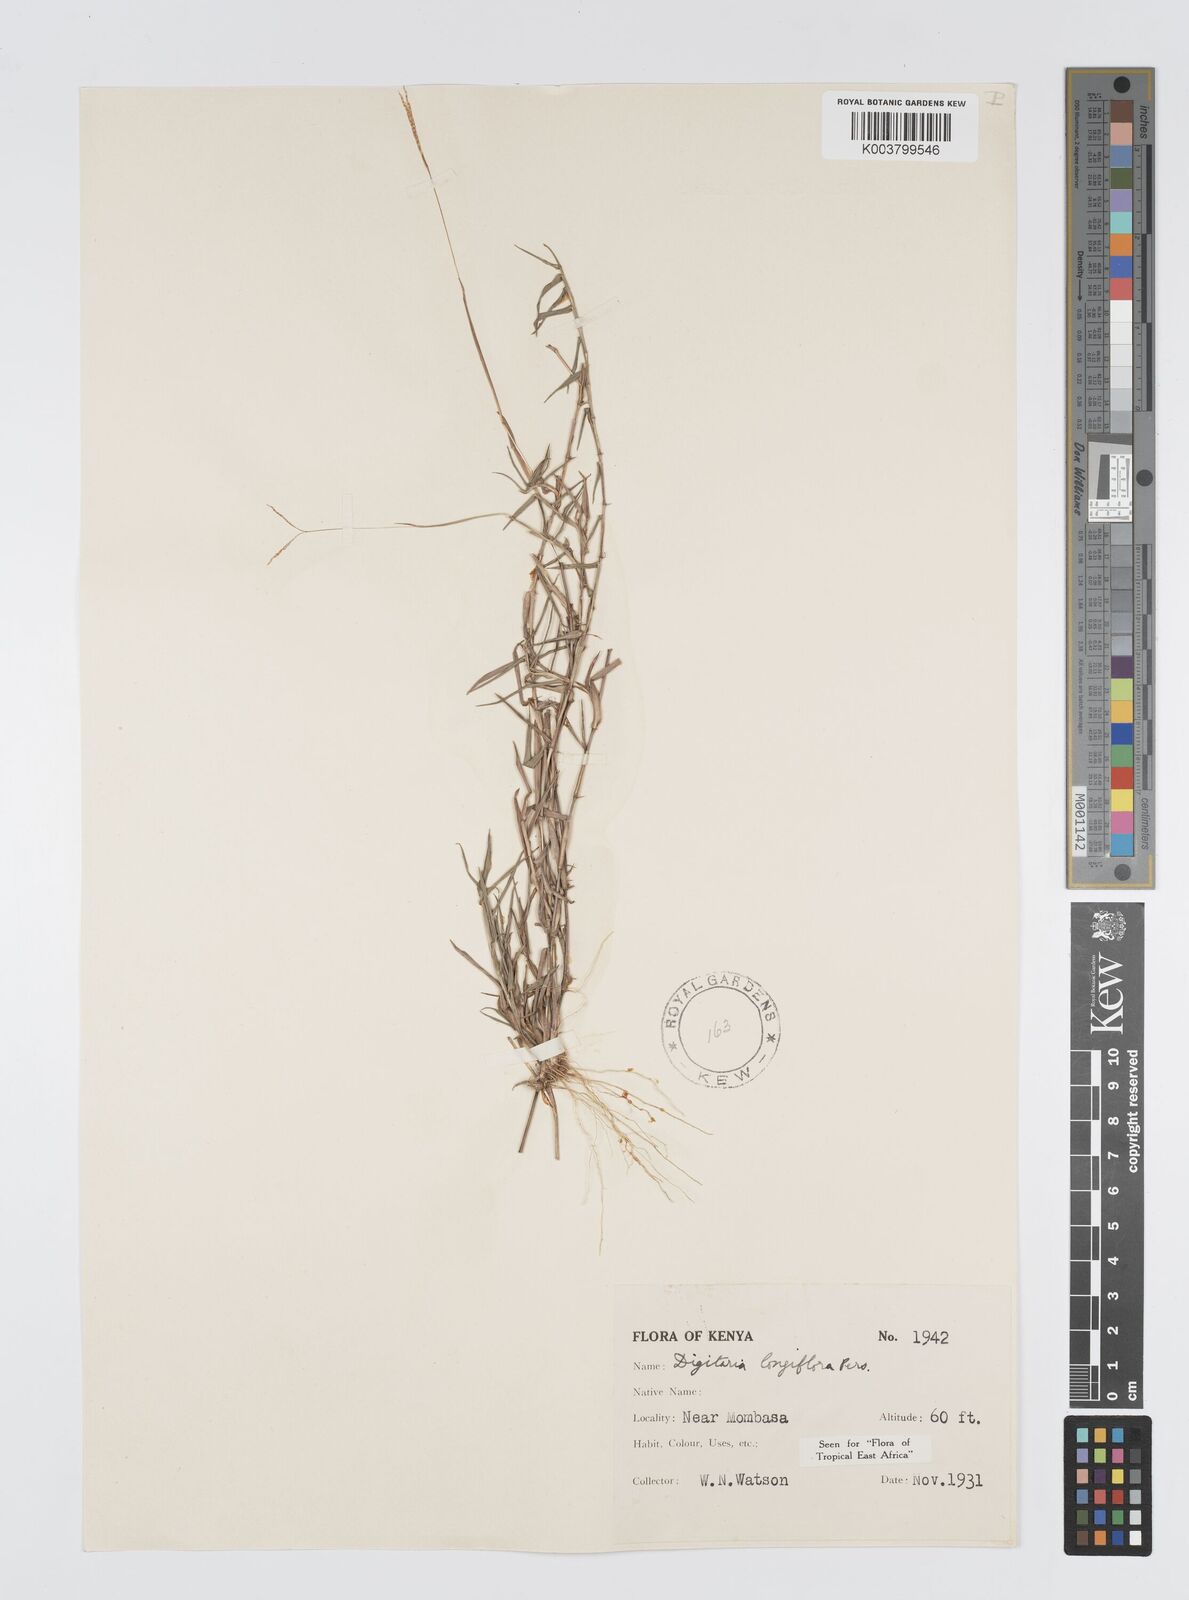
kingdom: Plantae
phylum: Tracheophyta
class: Liliopsida
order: Poales
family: Poaceae
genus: Digitaria
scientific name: Digitaria longiflora
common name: Wire crabgrass
